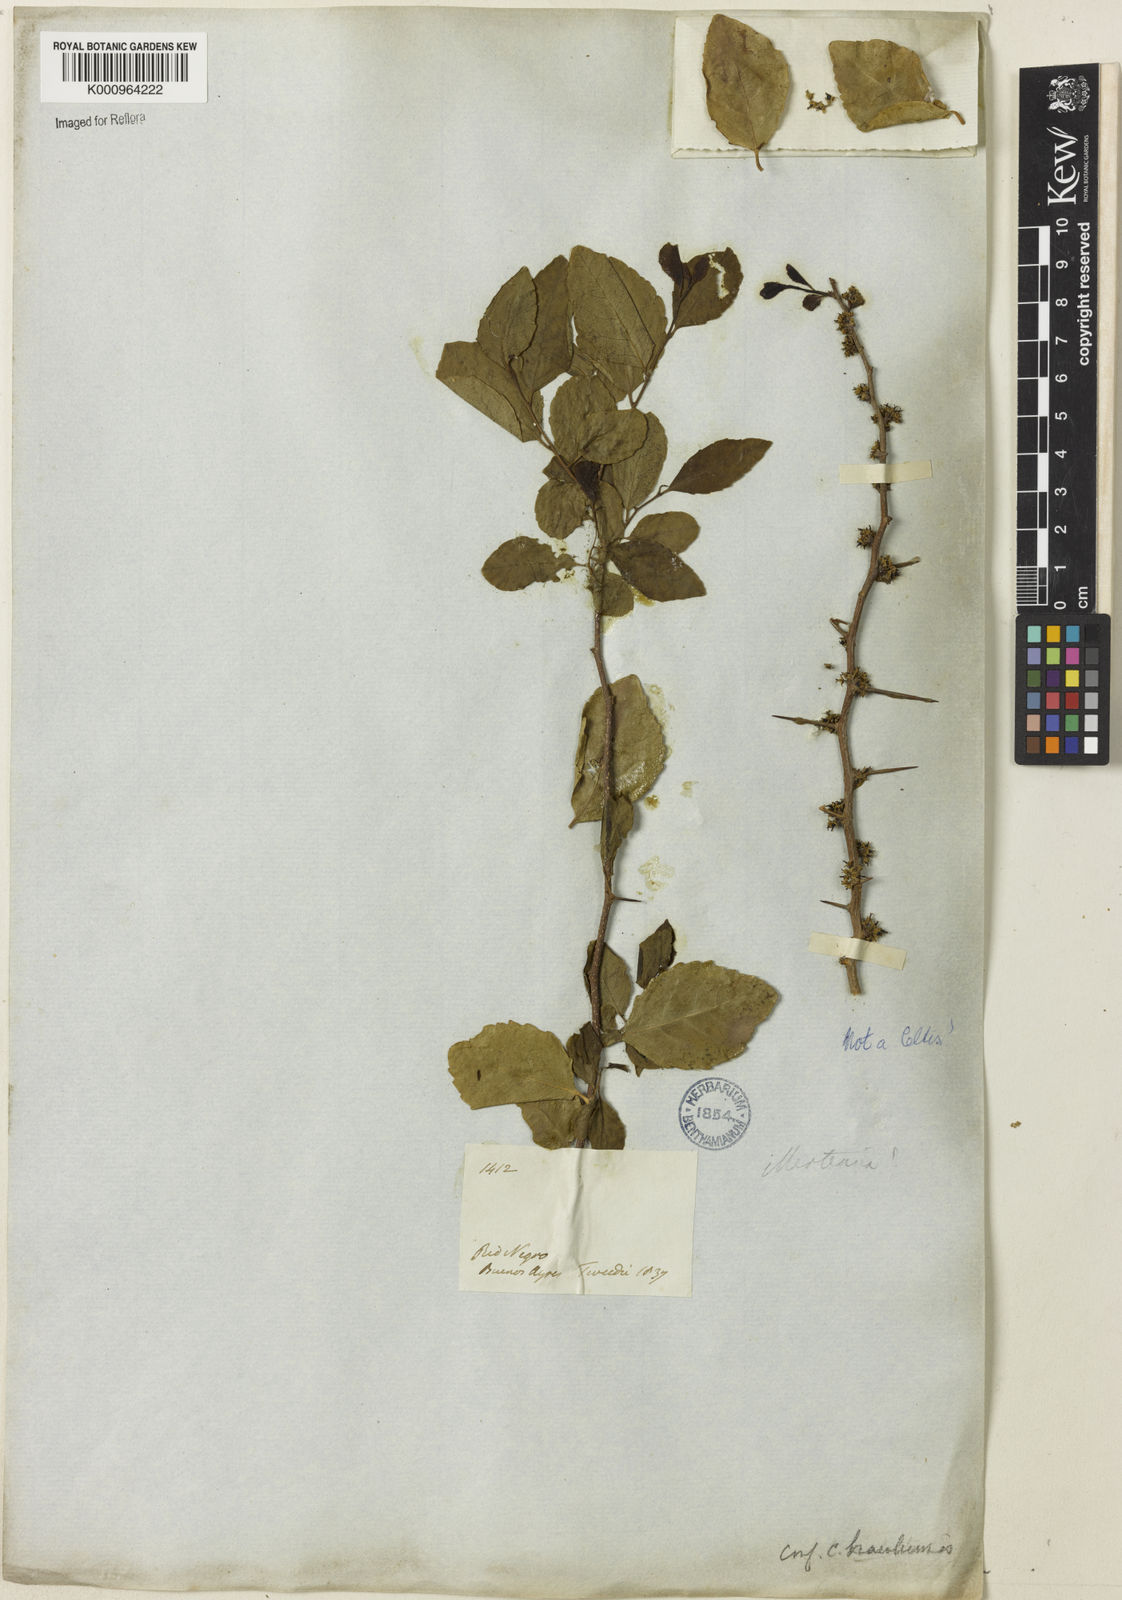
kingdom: Plantae
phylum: Tracheophyta
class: Magnoliopsida
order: Rosales
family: Cannabaceae
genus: Celtis
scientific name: Celtis brasiliensis
